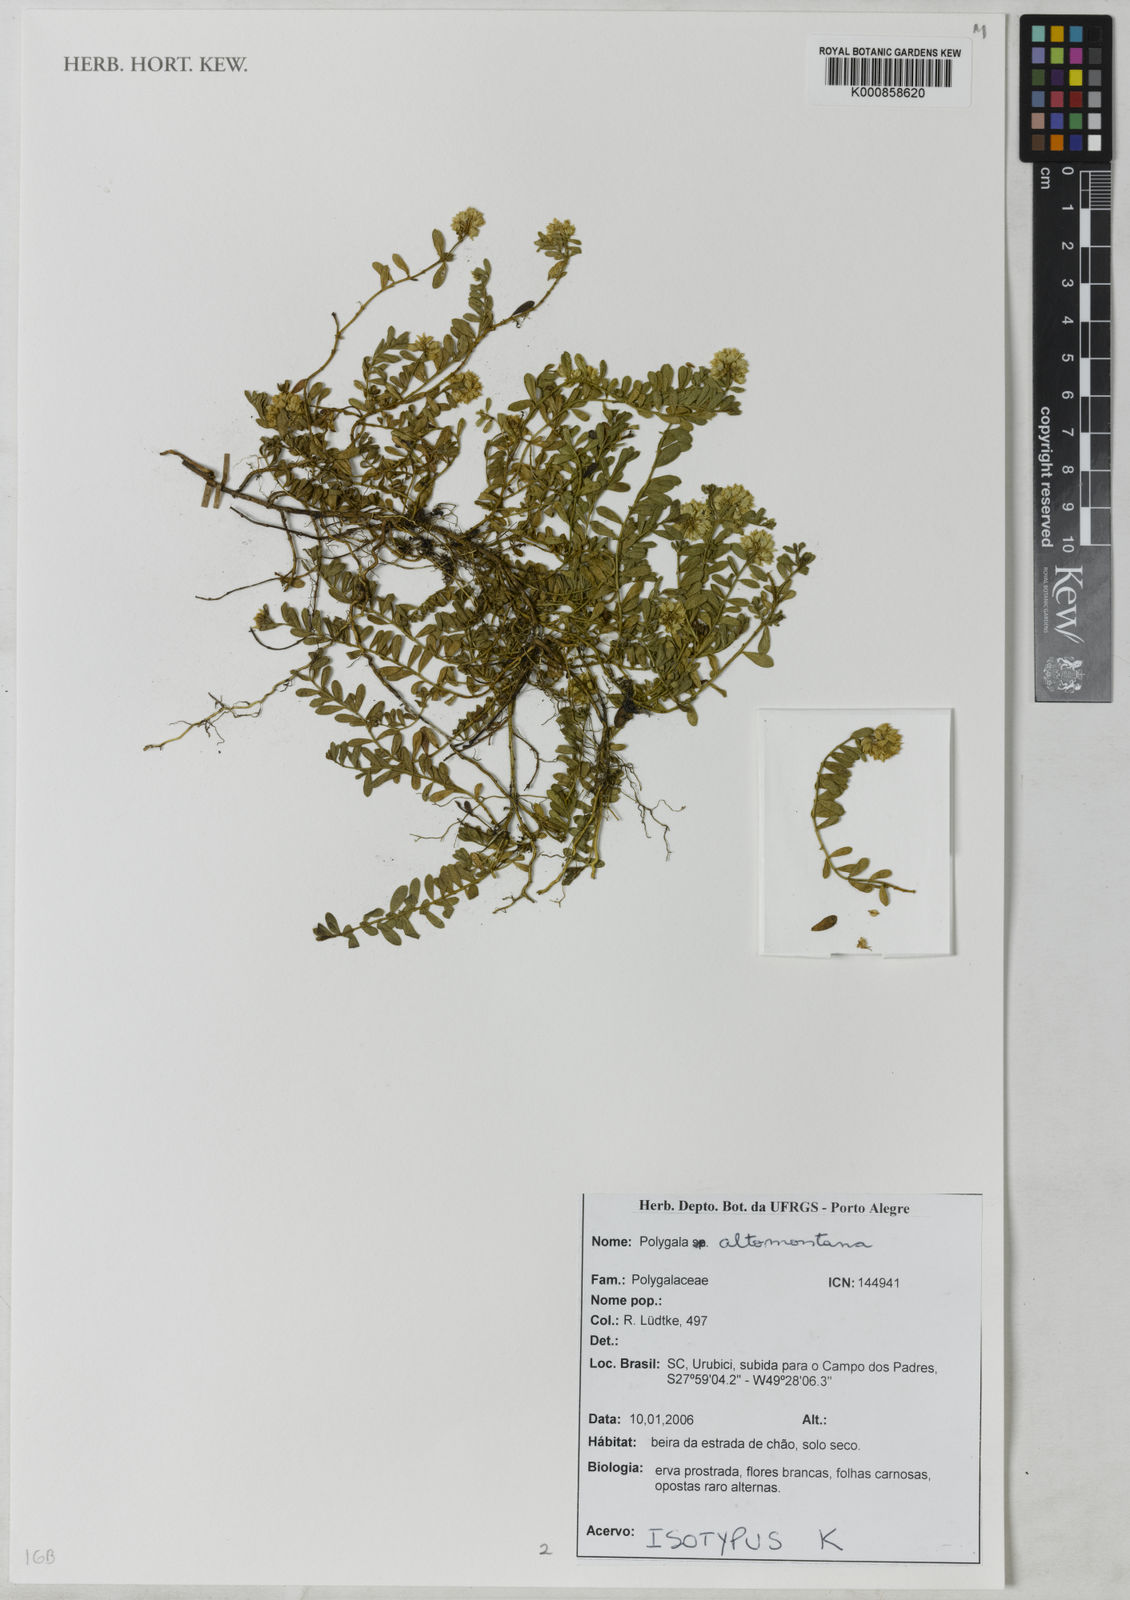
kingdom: Plantae
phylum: Tracheophyta
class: Magnoliopsida
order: Fabales
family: Polygalaceae
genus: Polygala
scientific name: Polygala
